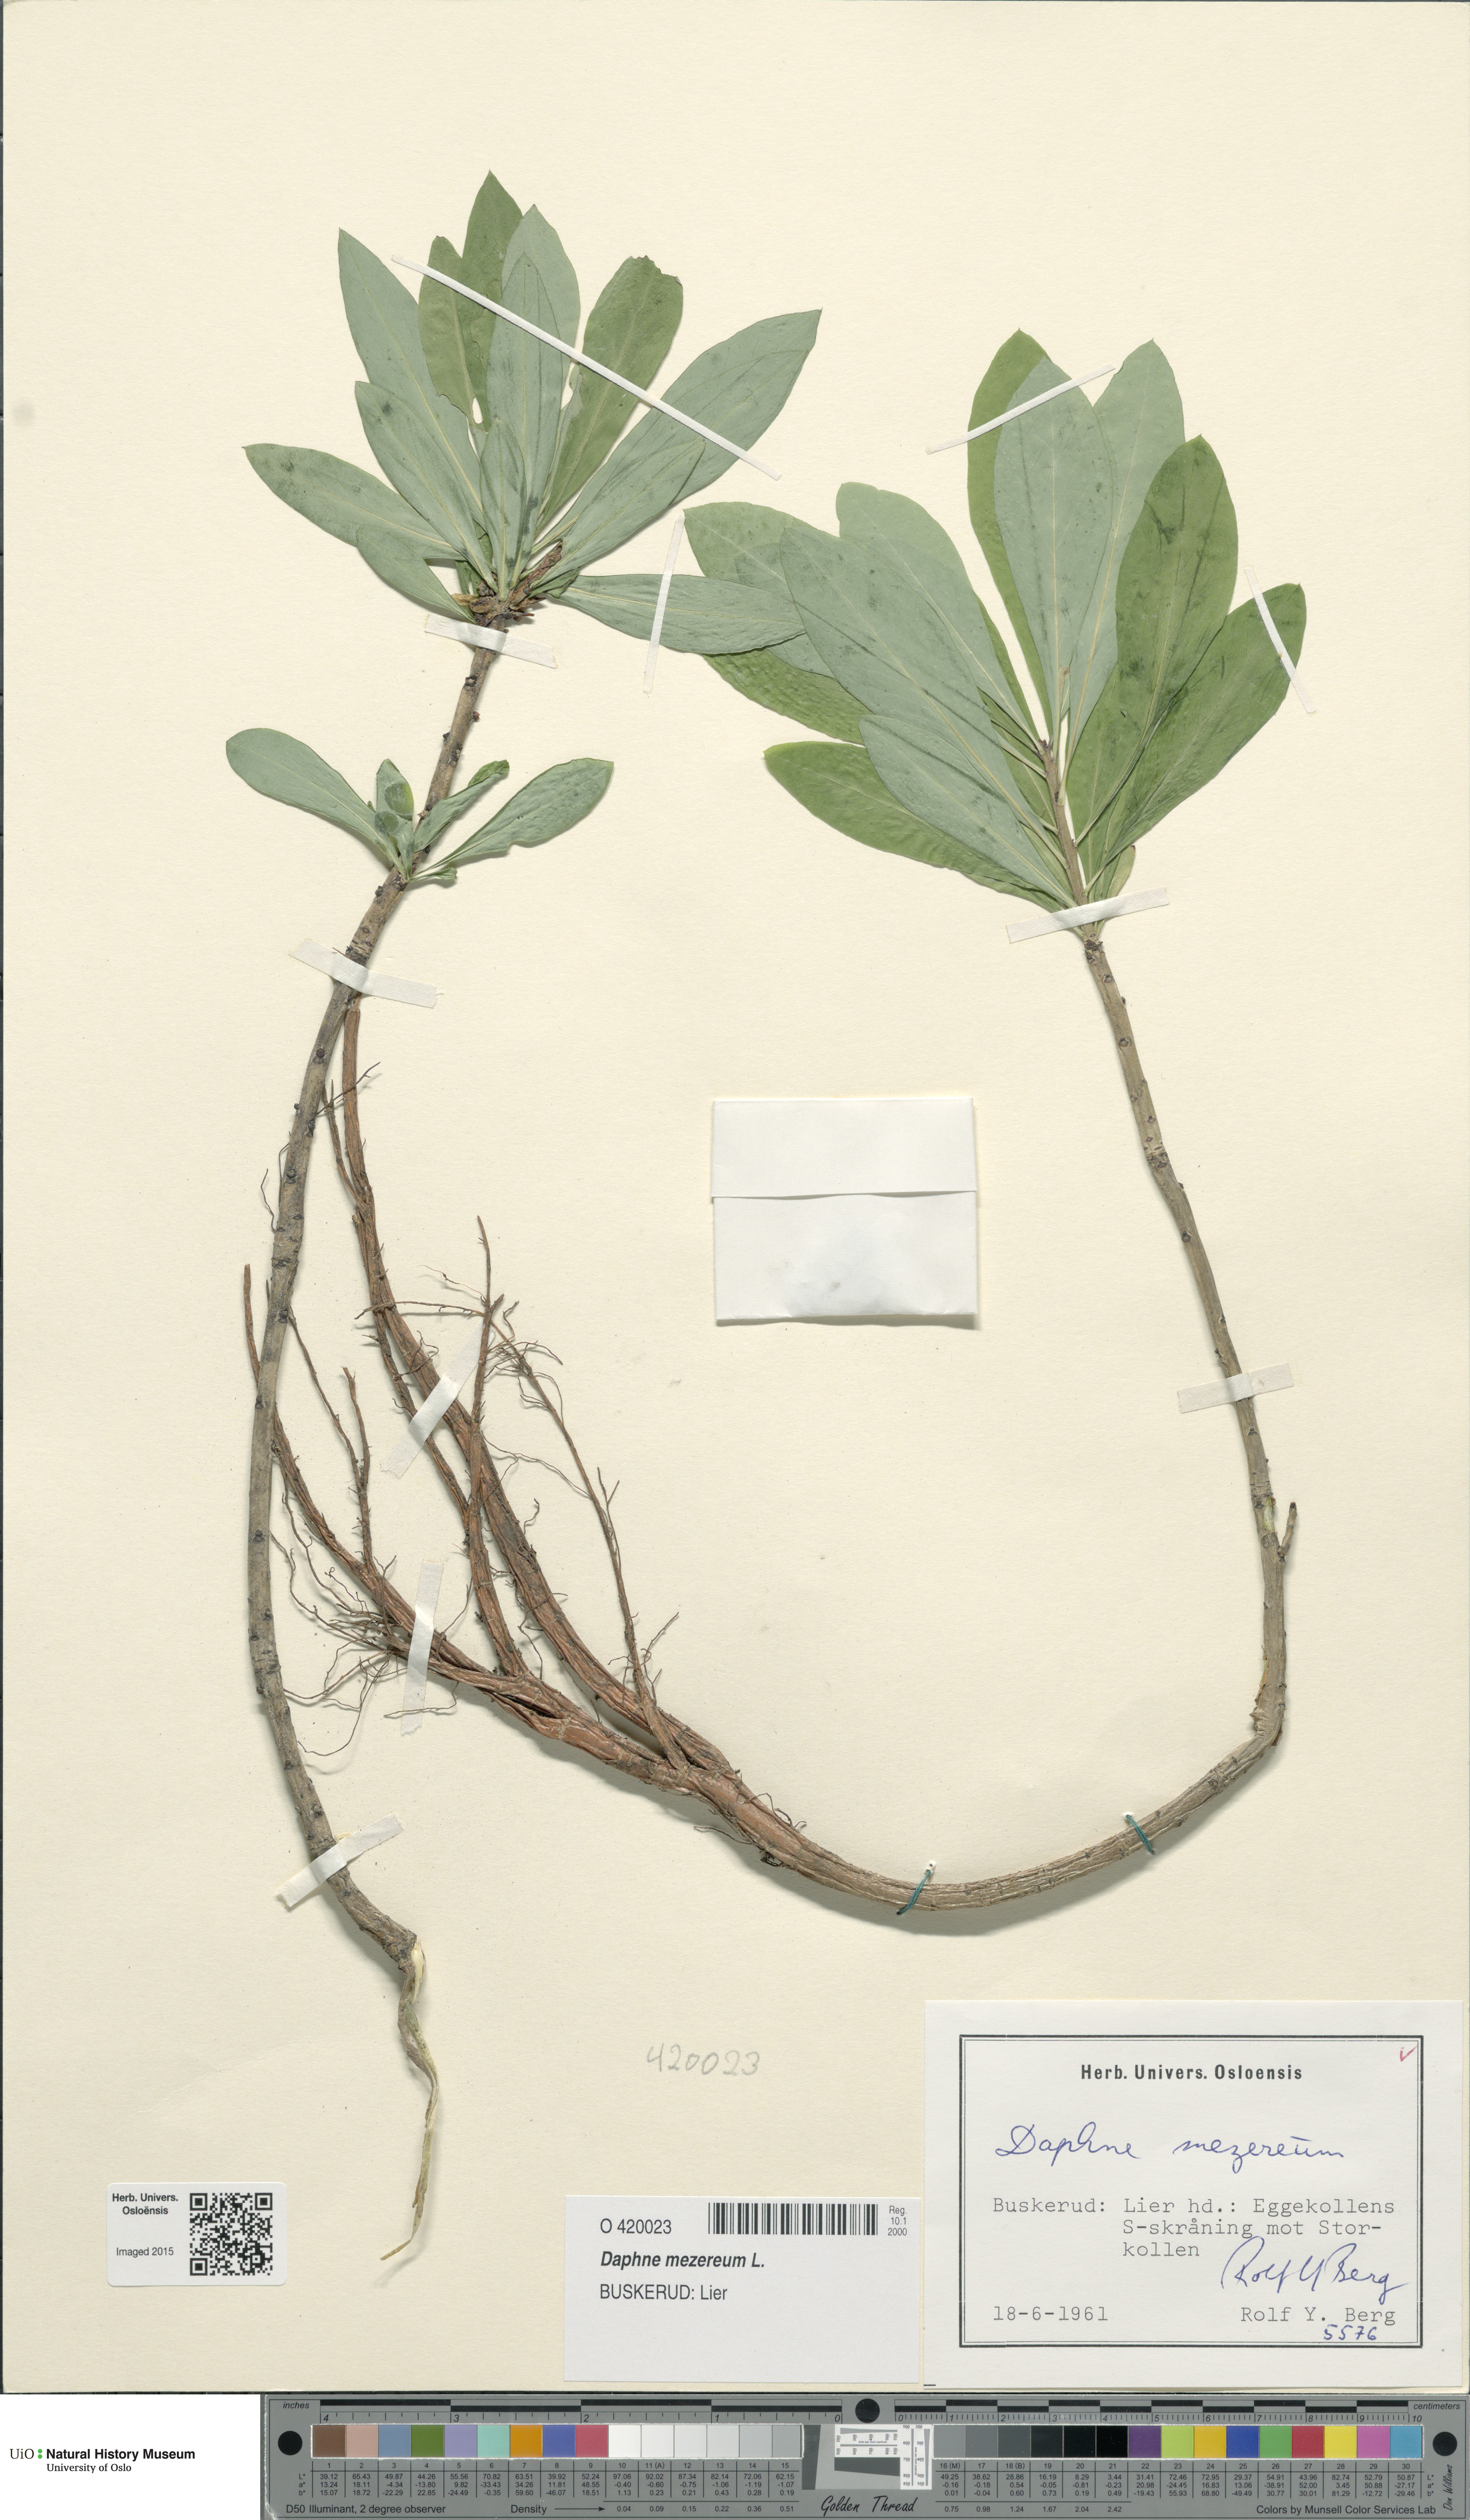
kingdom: Plantae
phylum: Tracheophyta
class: Magnoliopsida
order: Malvales
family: Thymelaeaceae
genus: Daphne
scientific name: Daphne mezereum
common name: Mezereon
